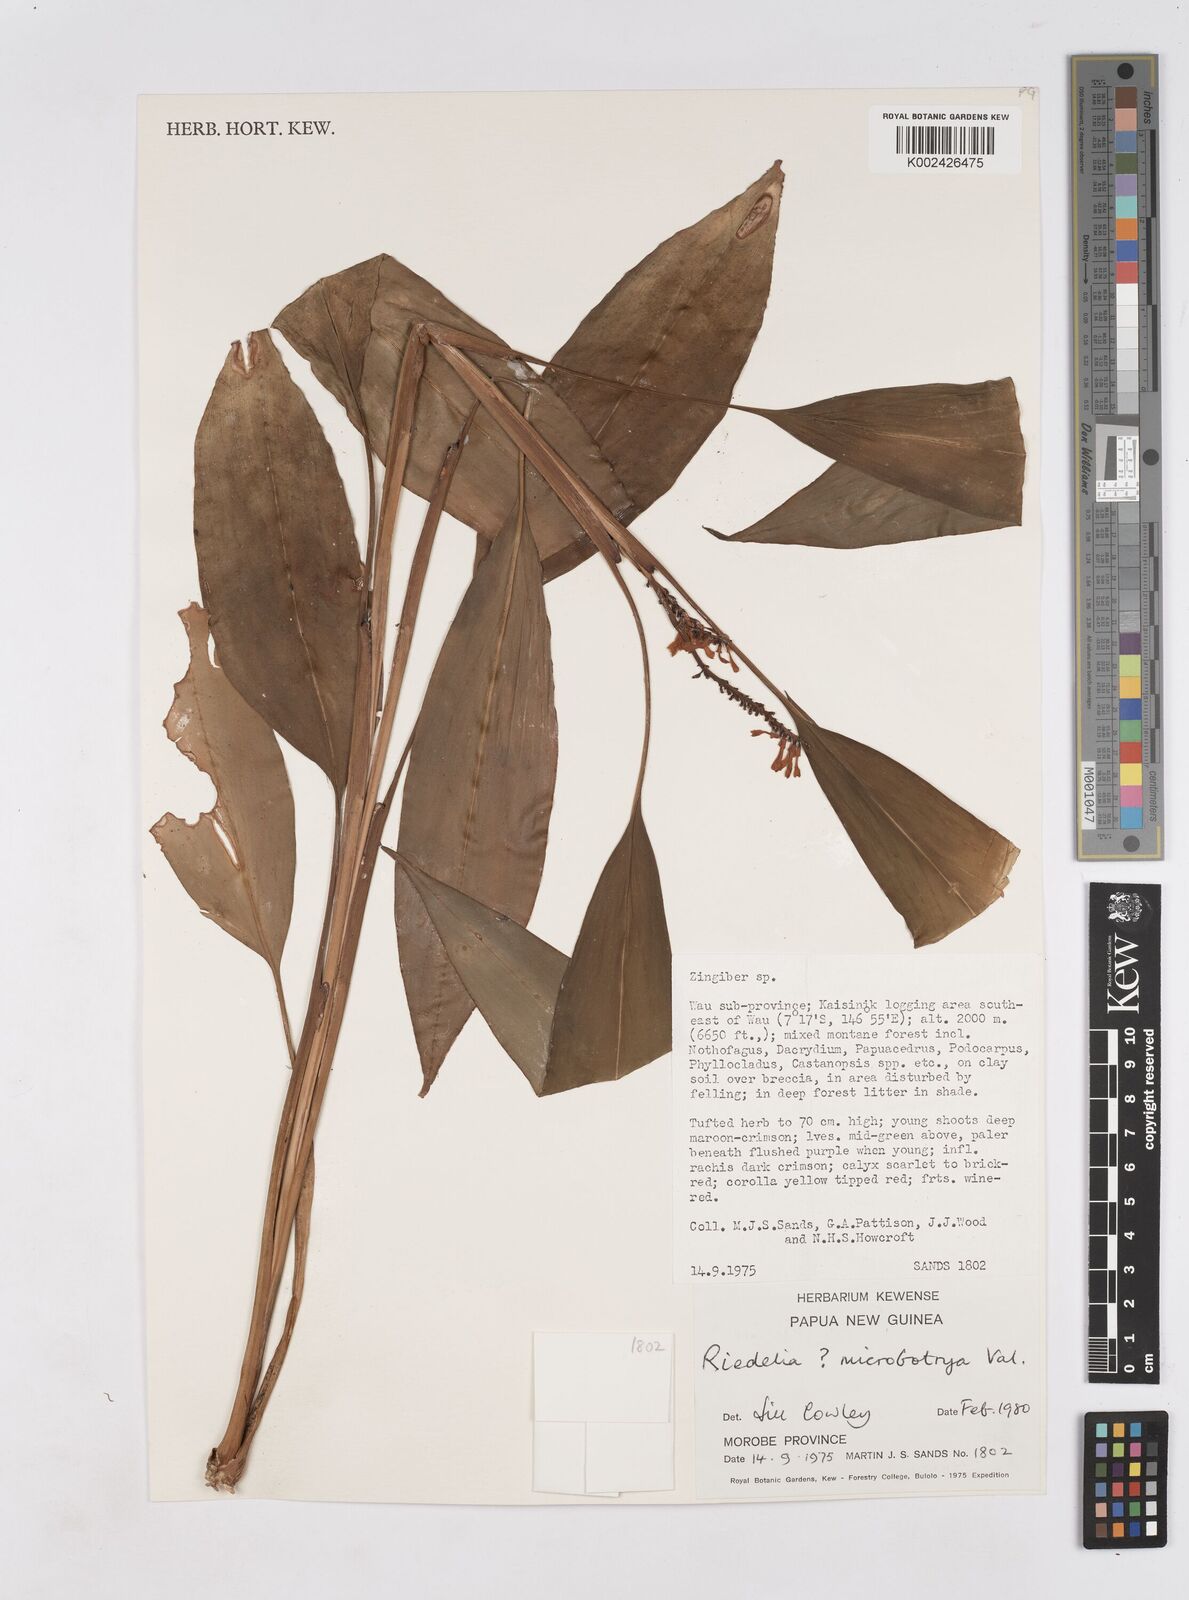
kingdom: Plantae
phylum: Tracheophyta
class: Liliopsida
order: Zingiberales
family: Zingiberaceae
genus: Riedelia
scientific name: Riedelia microbotrya
